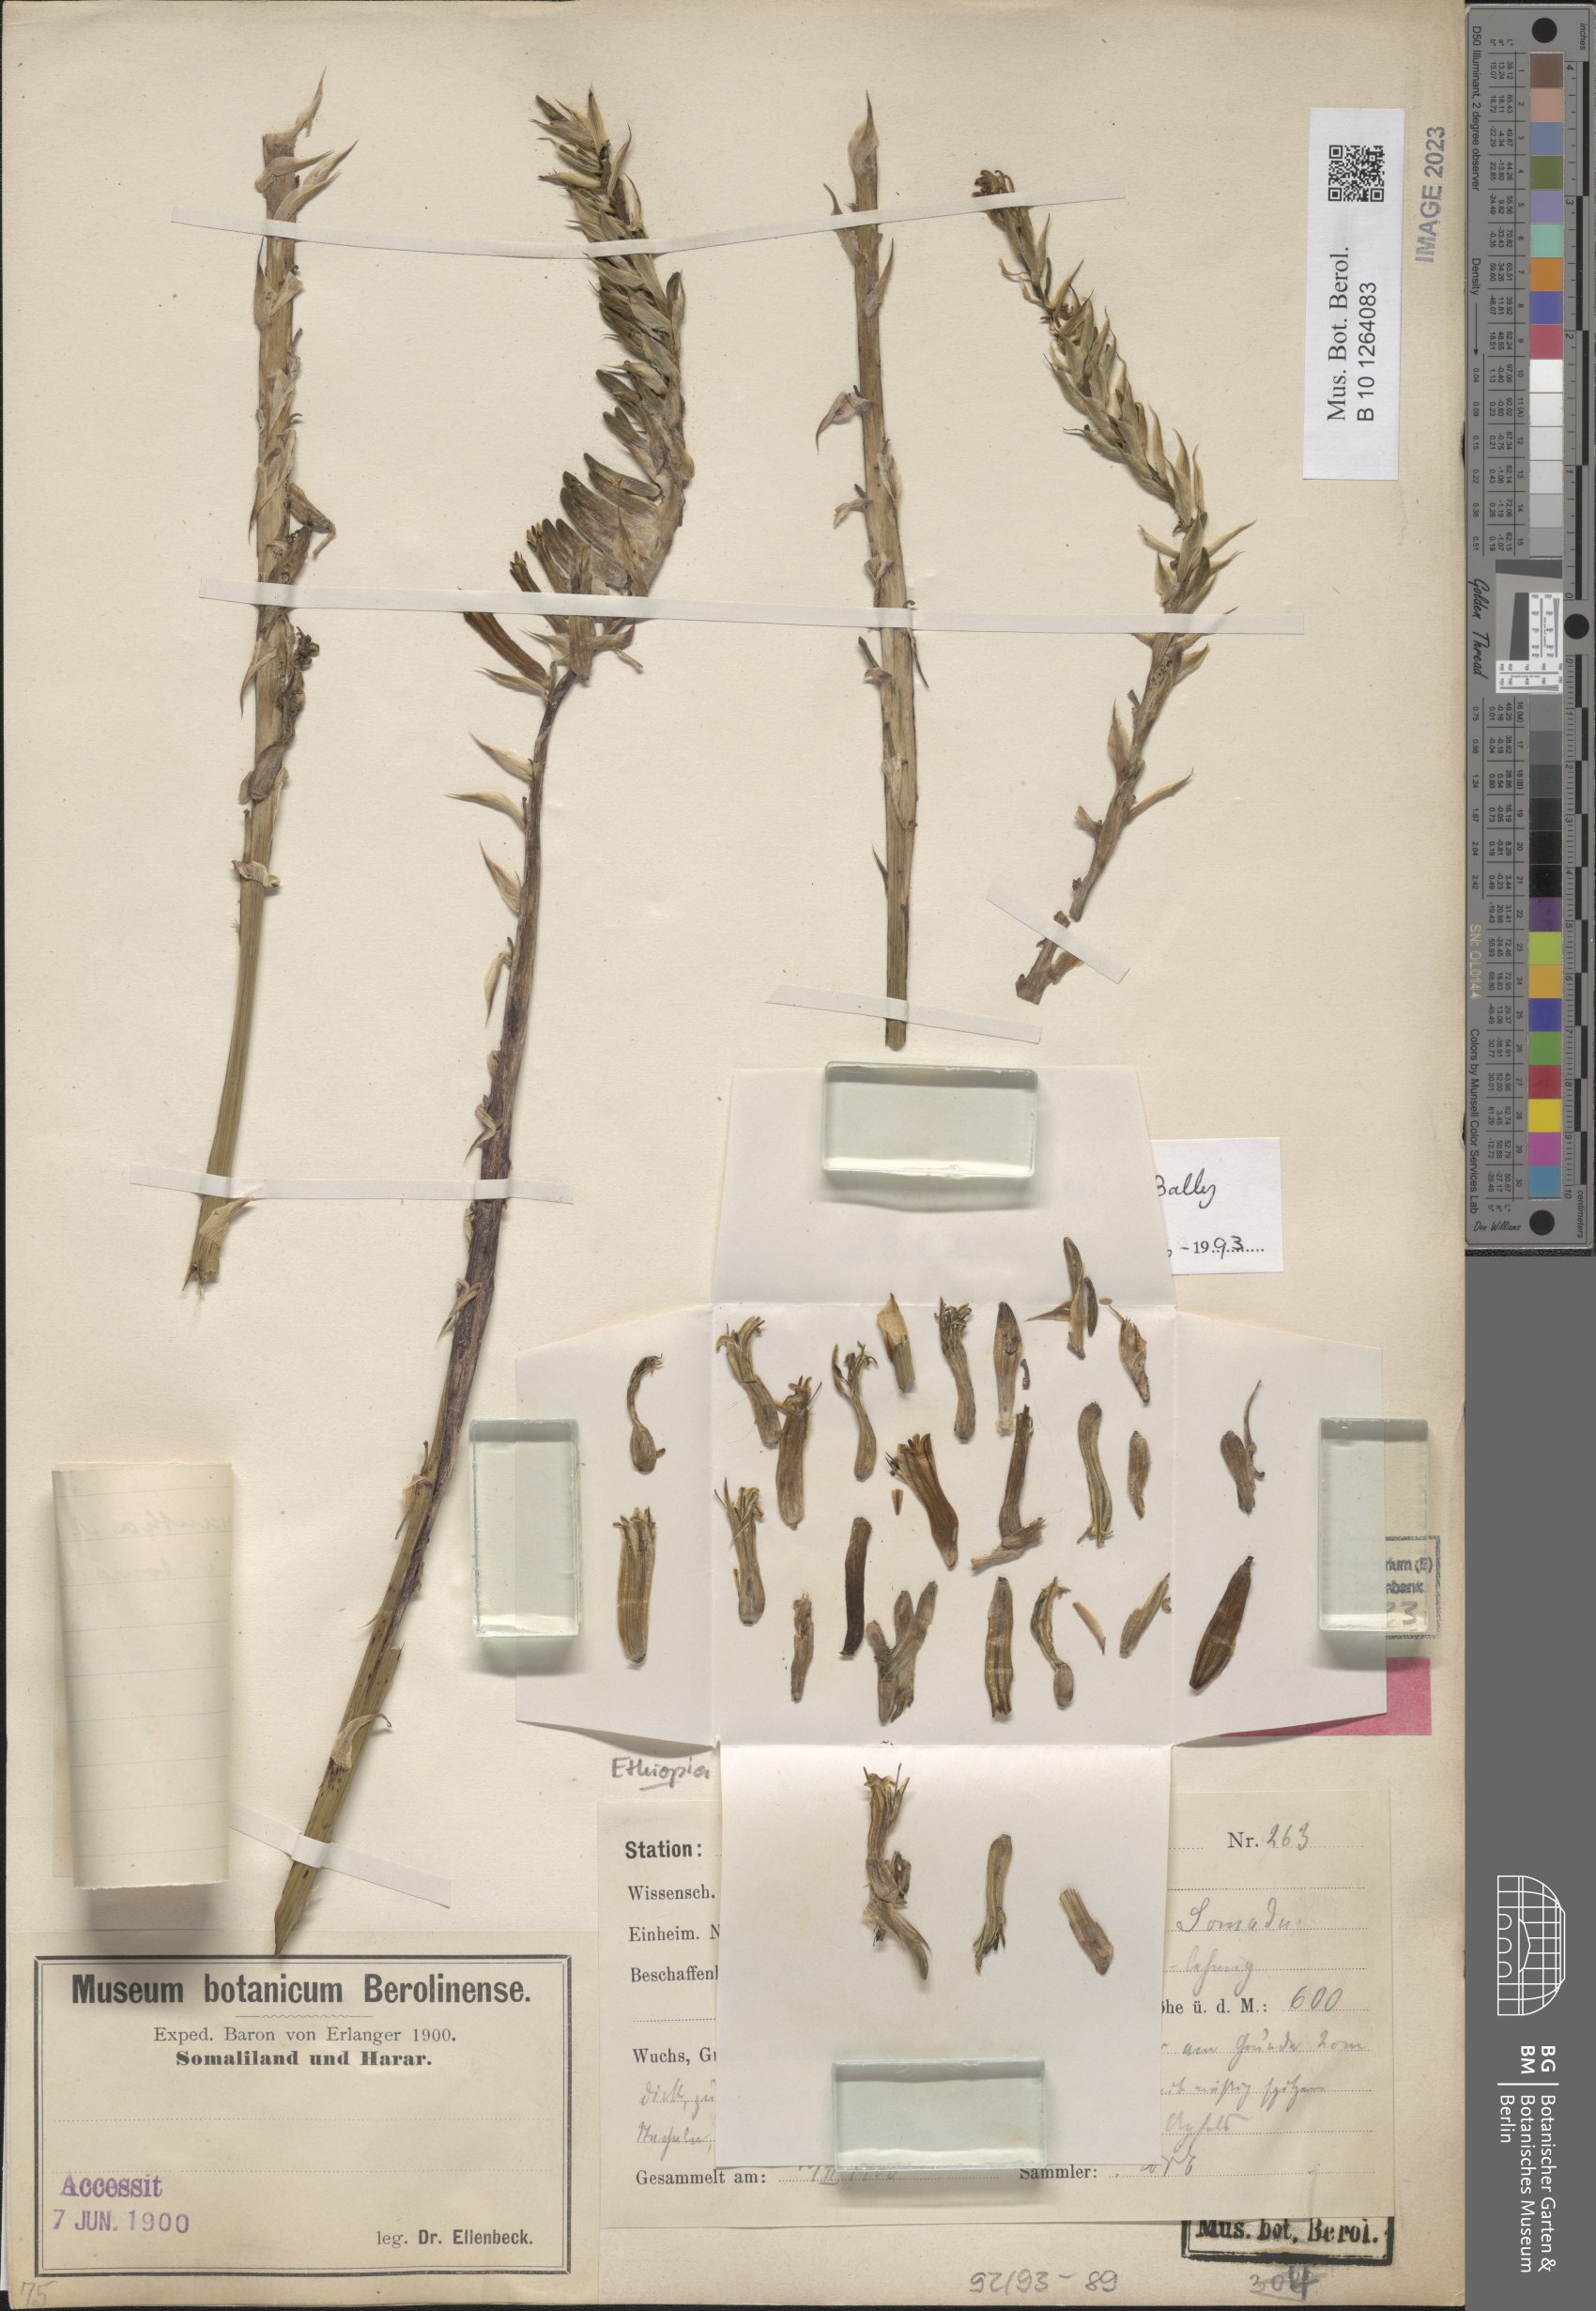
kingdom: Plantae
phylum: Tracheophyta
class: Liliopsida
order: Asparagales
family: Asphodelaceae
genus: Aloe
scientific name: Aloe rigens
